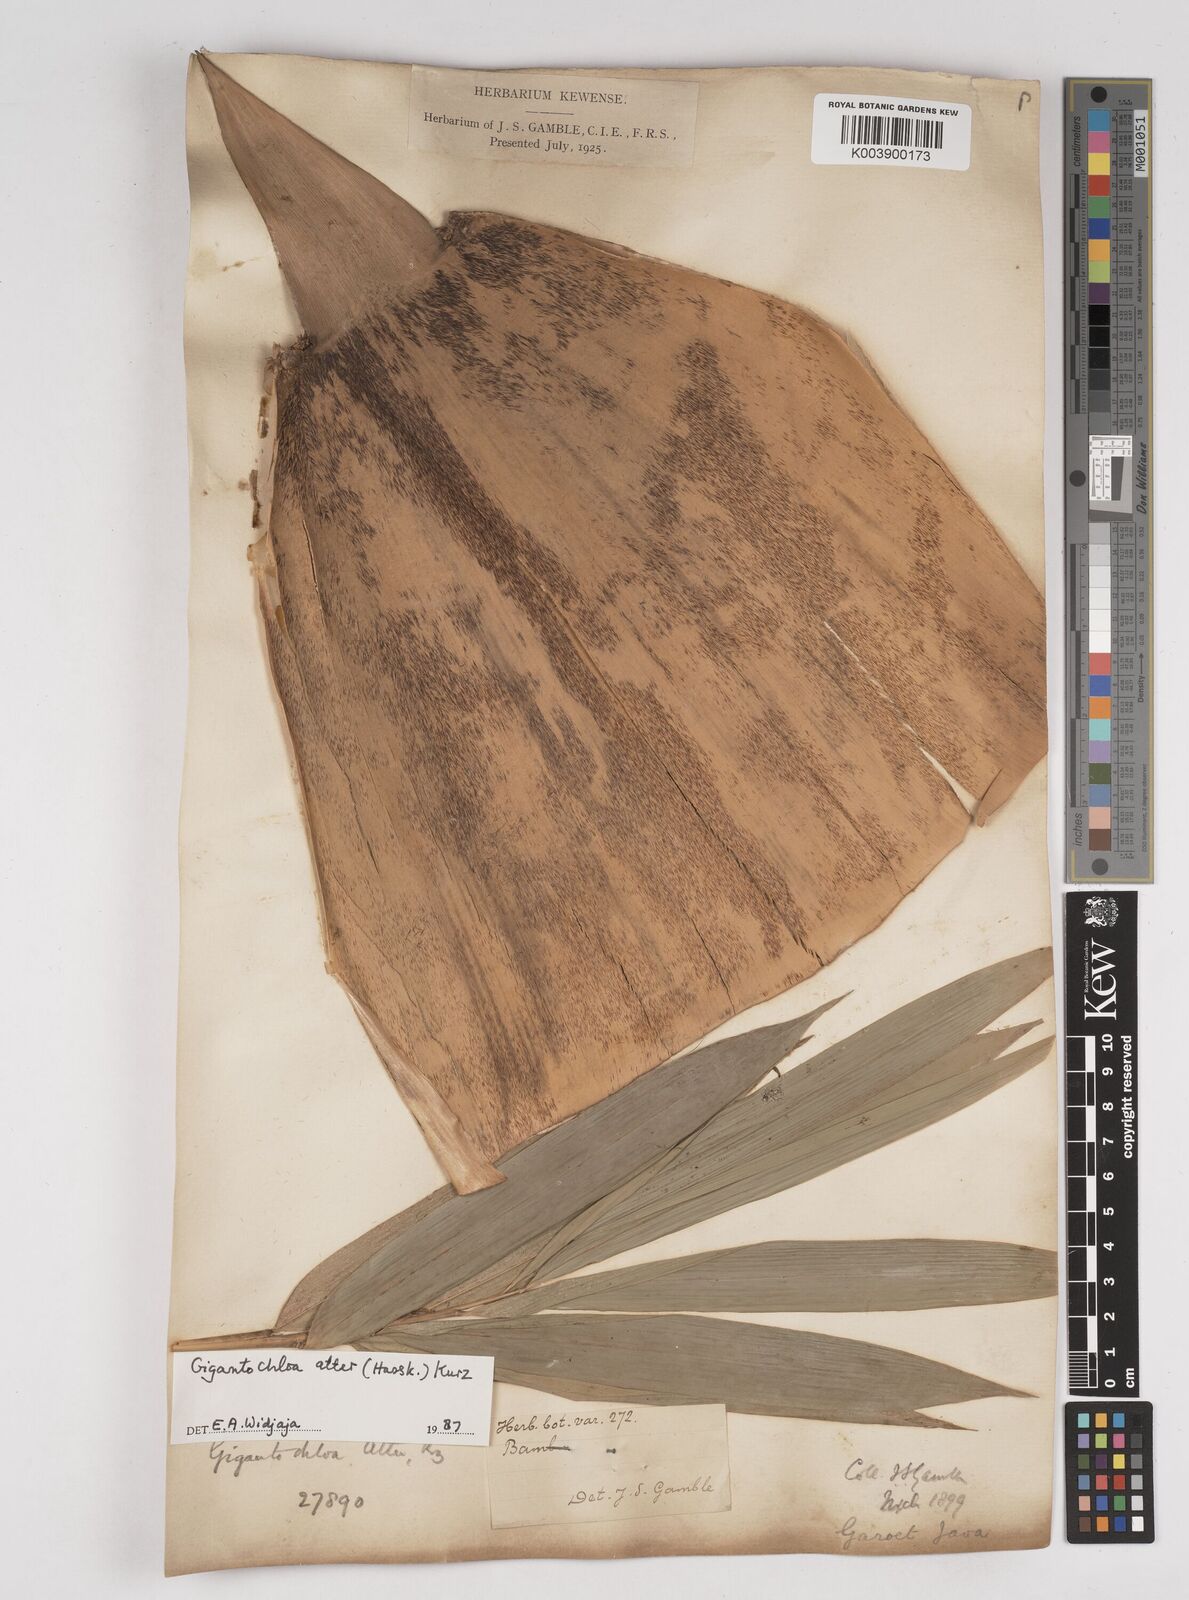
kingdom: Plantae
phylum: Tracheophyta
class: Liliopsida
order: Poales
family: Poaceae
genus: Gigantochloa
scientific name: Gigantochloa atter
